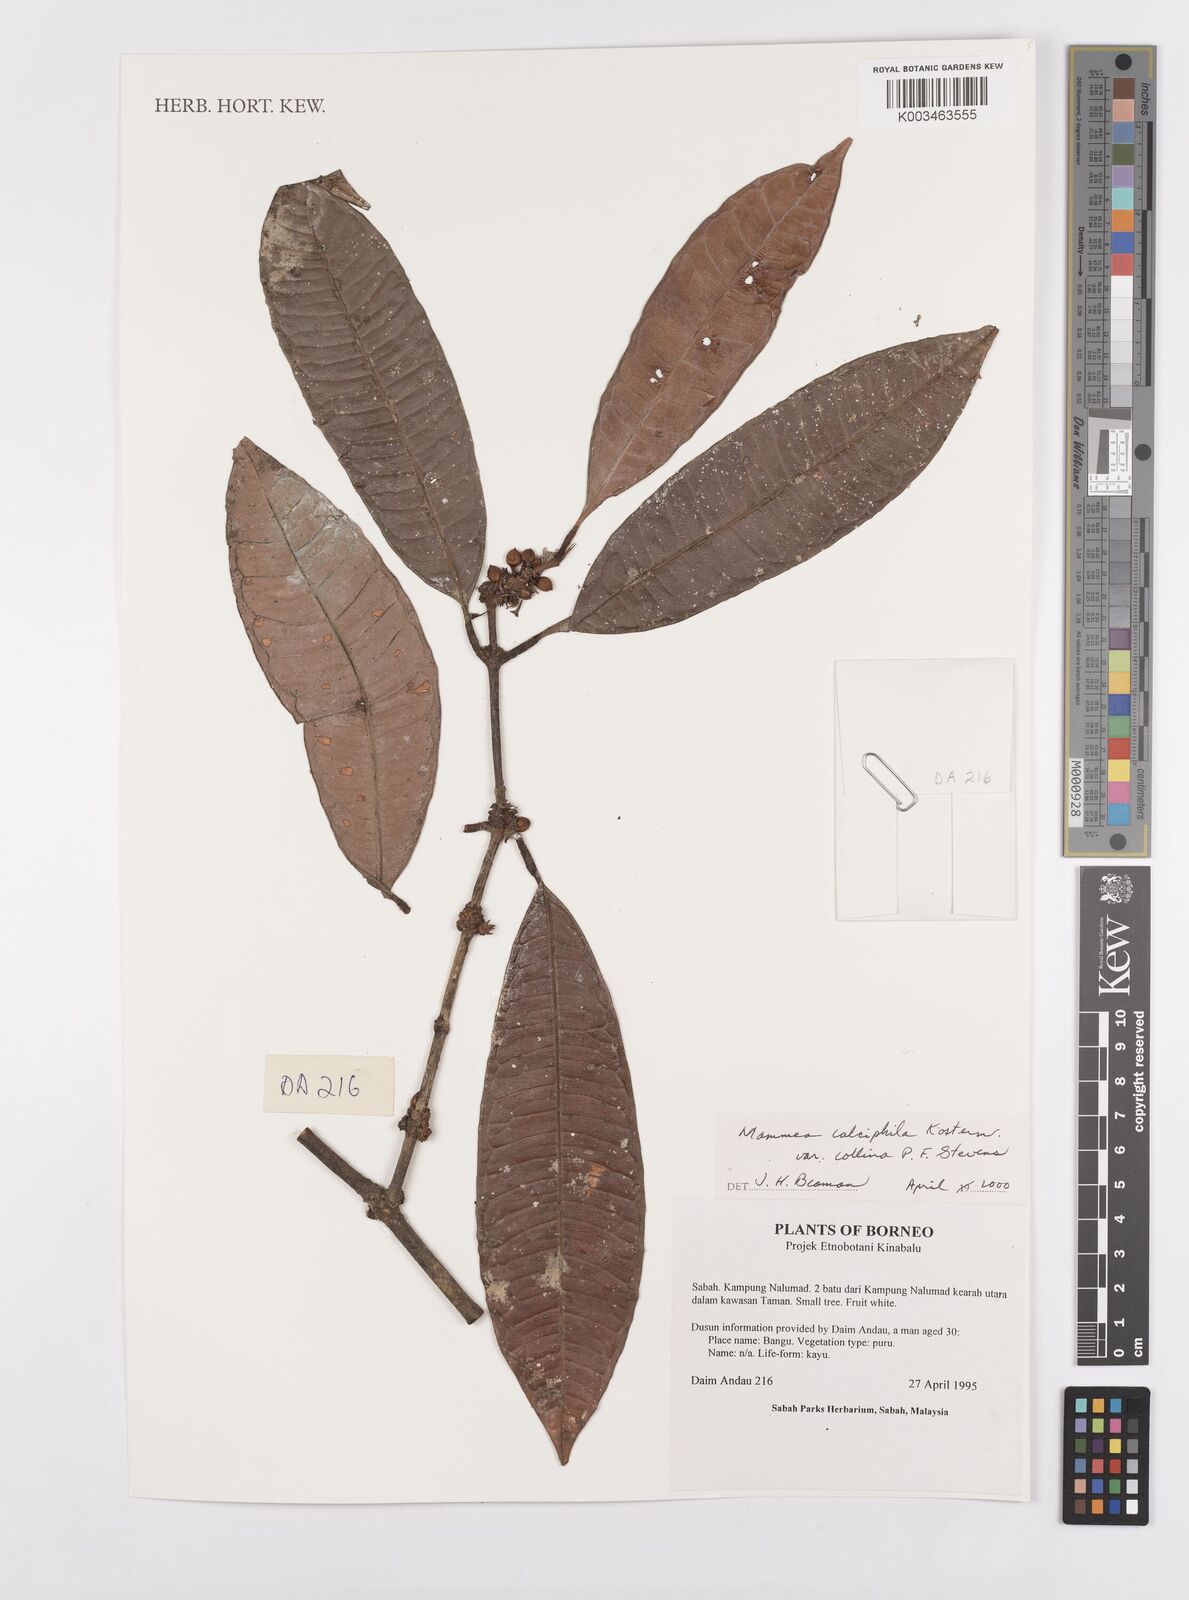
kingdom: Plantae
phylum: Tracheophyta
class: Magnoliopsida
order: Malpighiales
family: Calophyllaceae
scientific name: Calophyllaceae
